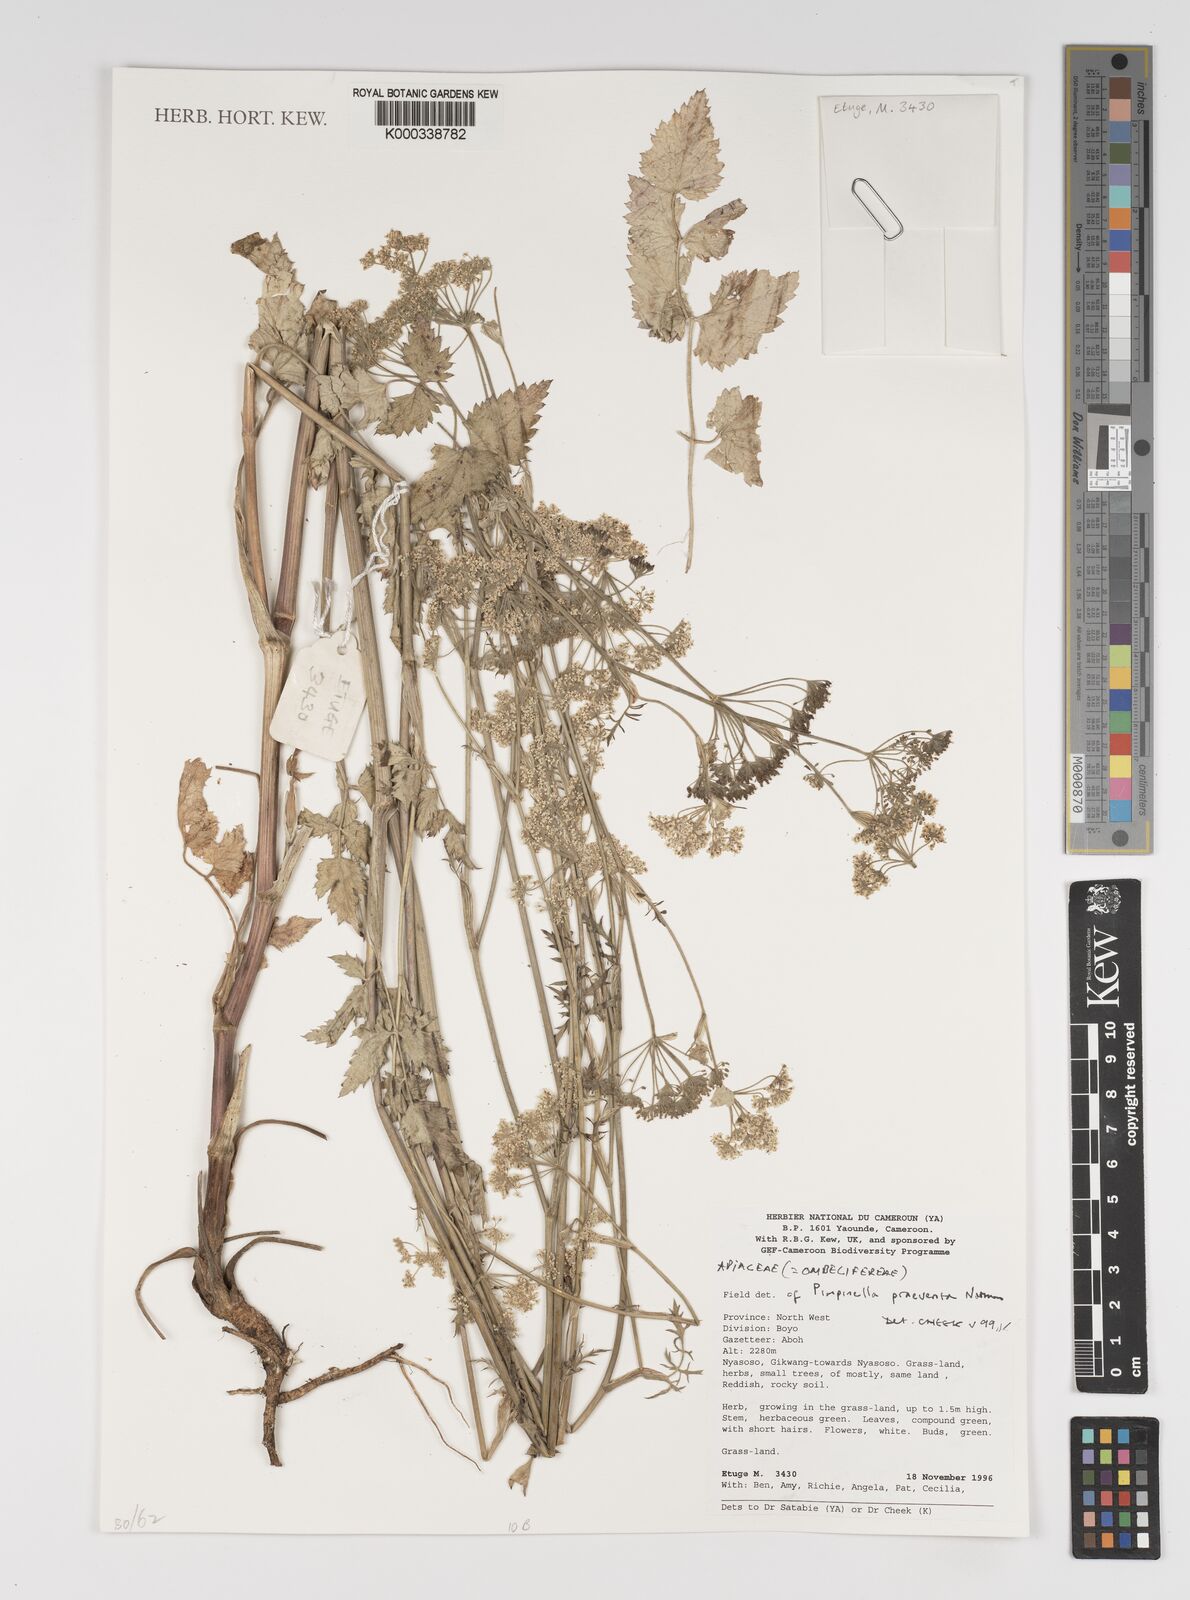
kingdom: Plantae
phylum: Tracheophyta
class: Magnoliopsida
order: Apiales
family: Apiaceae
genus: Pimpinella
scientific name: Pimpinella hirtella
